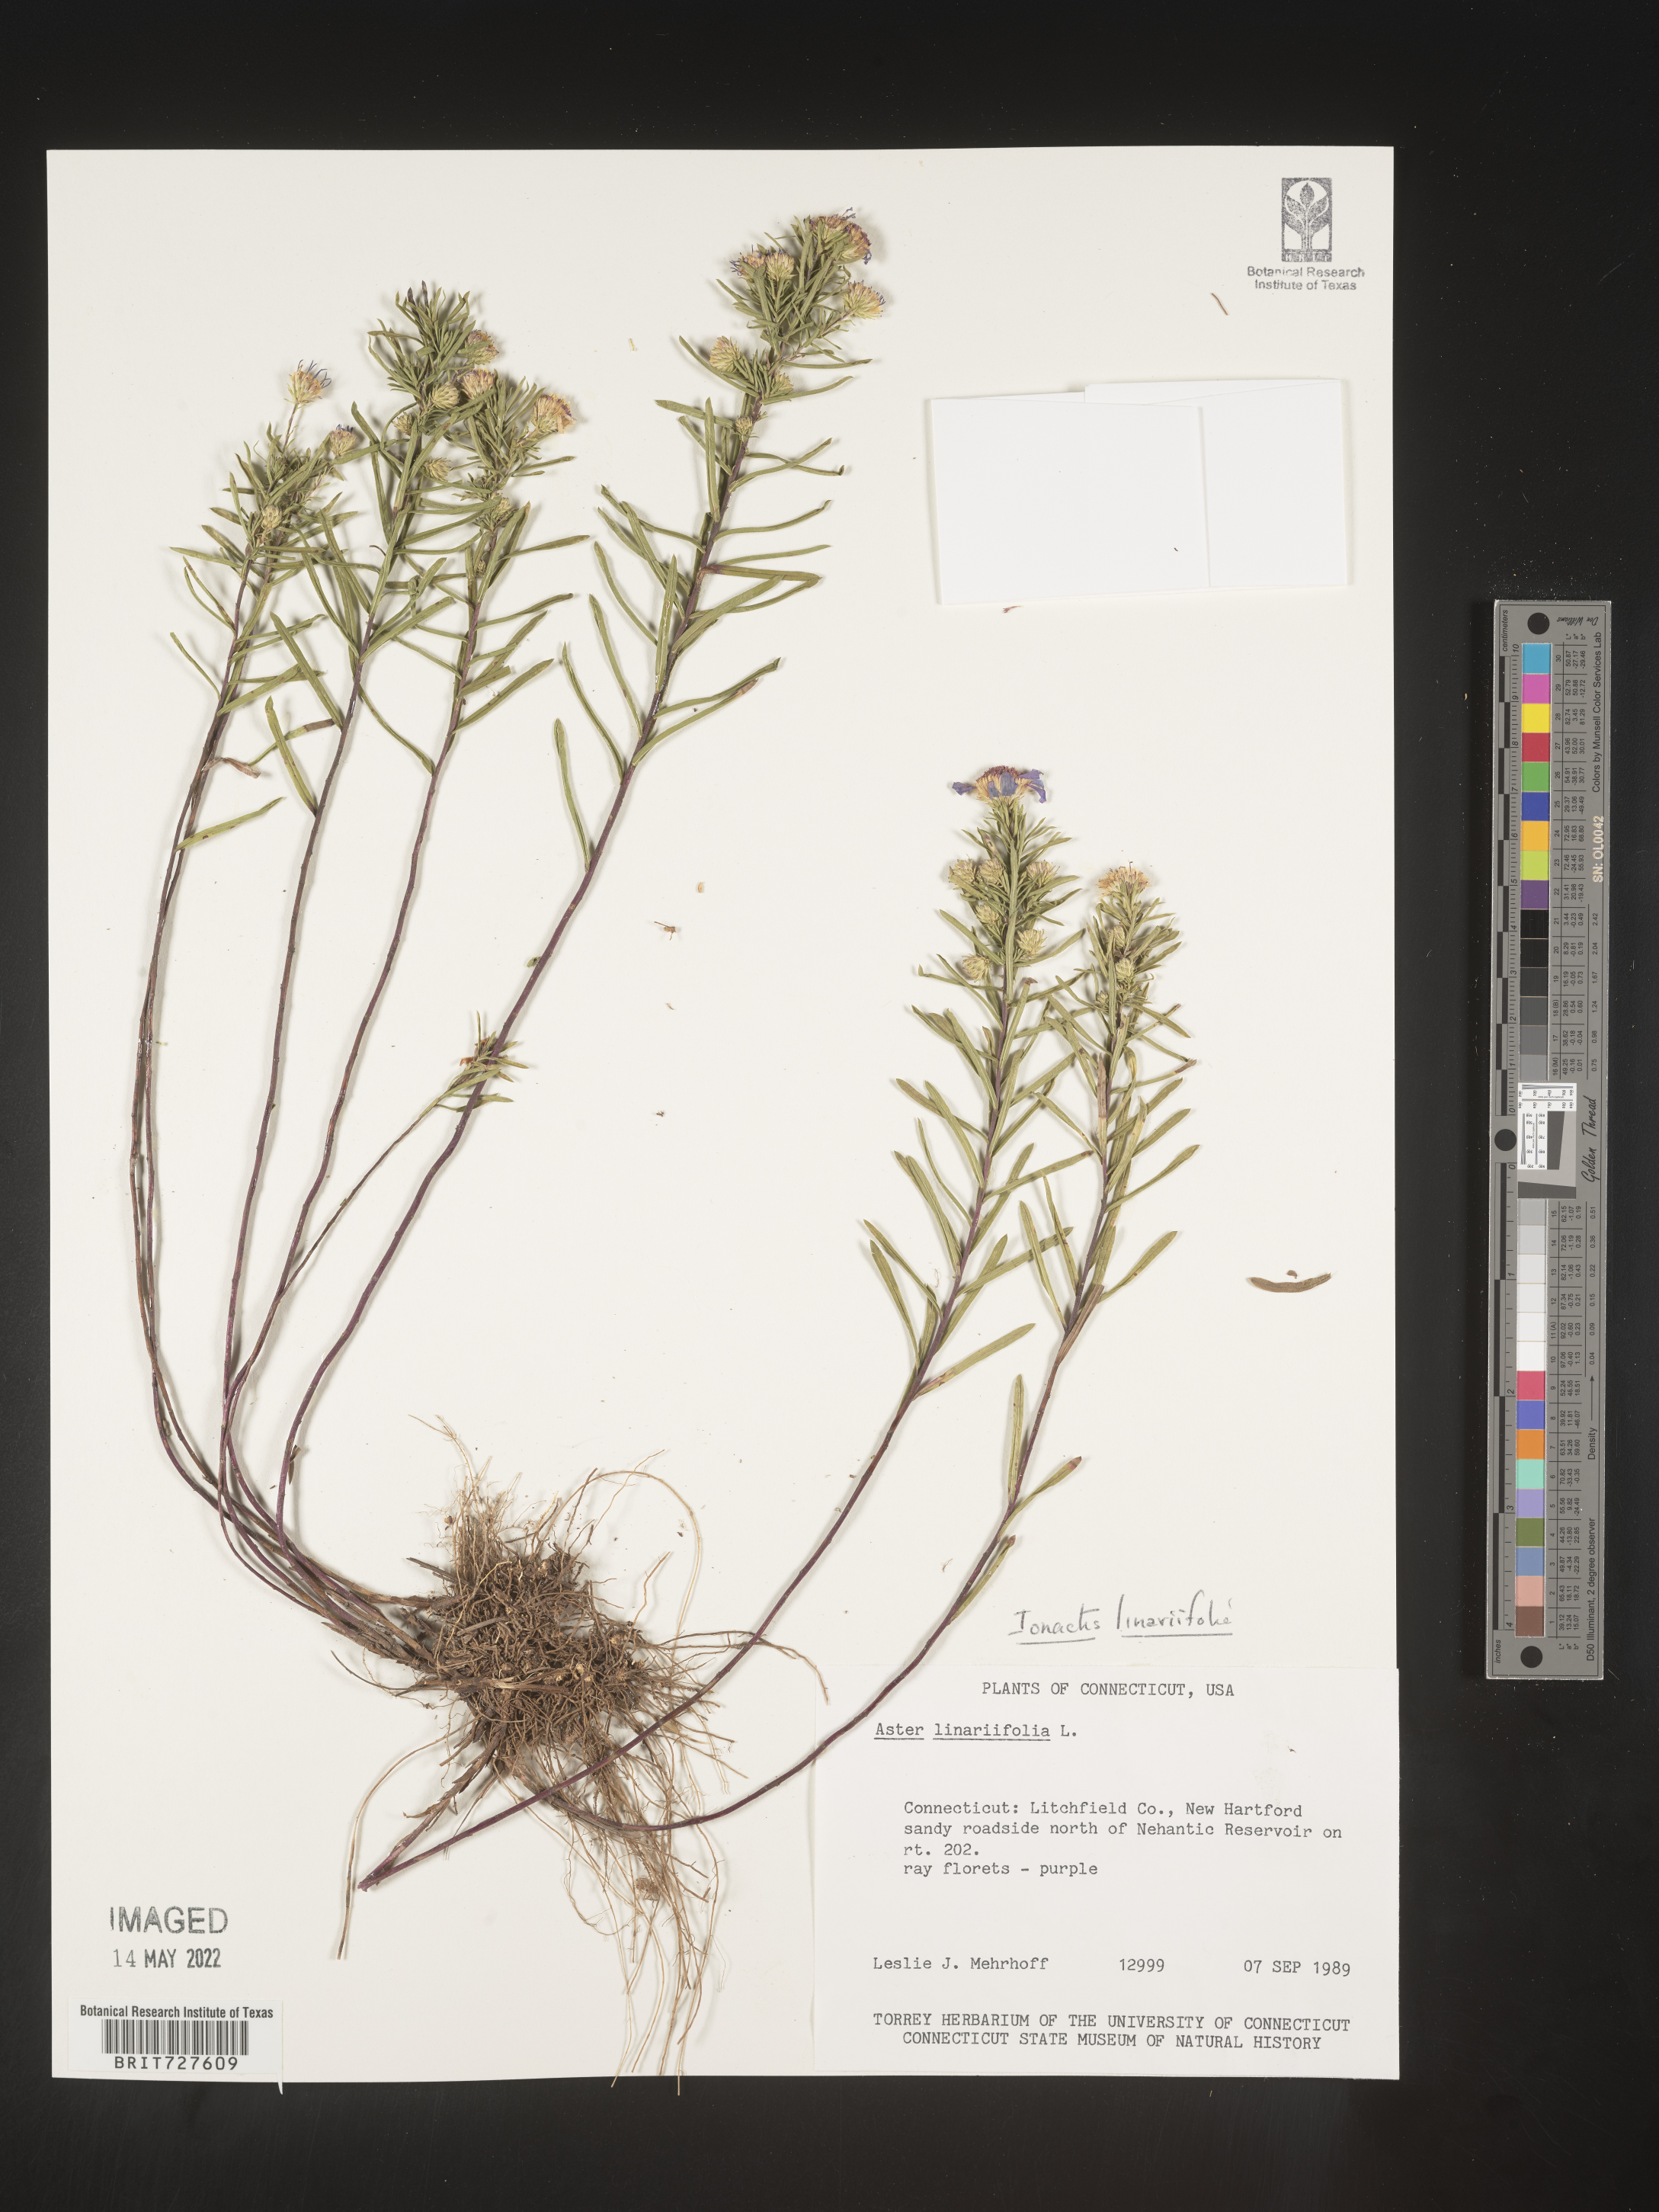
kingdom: Plantae
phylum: Tracheophyta
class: Magnoliopsida
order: Asterales
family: Asteraceae
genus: Ionactis
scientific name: Ionactis linariifolia
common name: Flax-leaf aster
